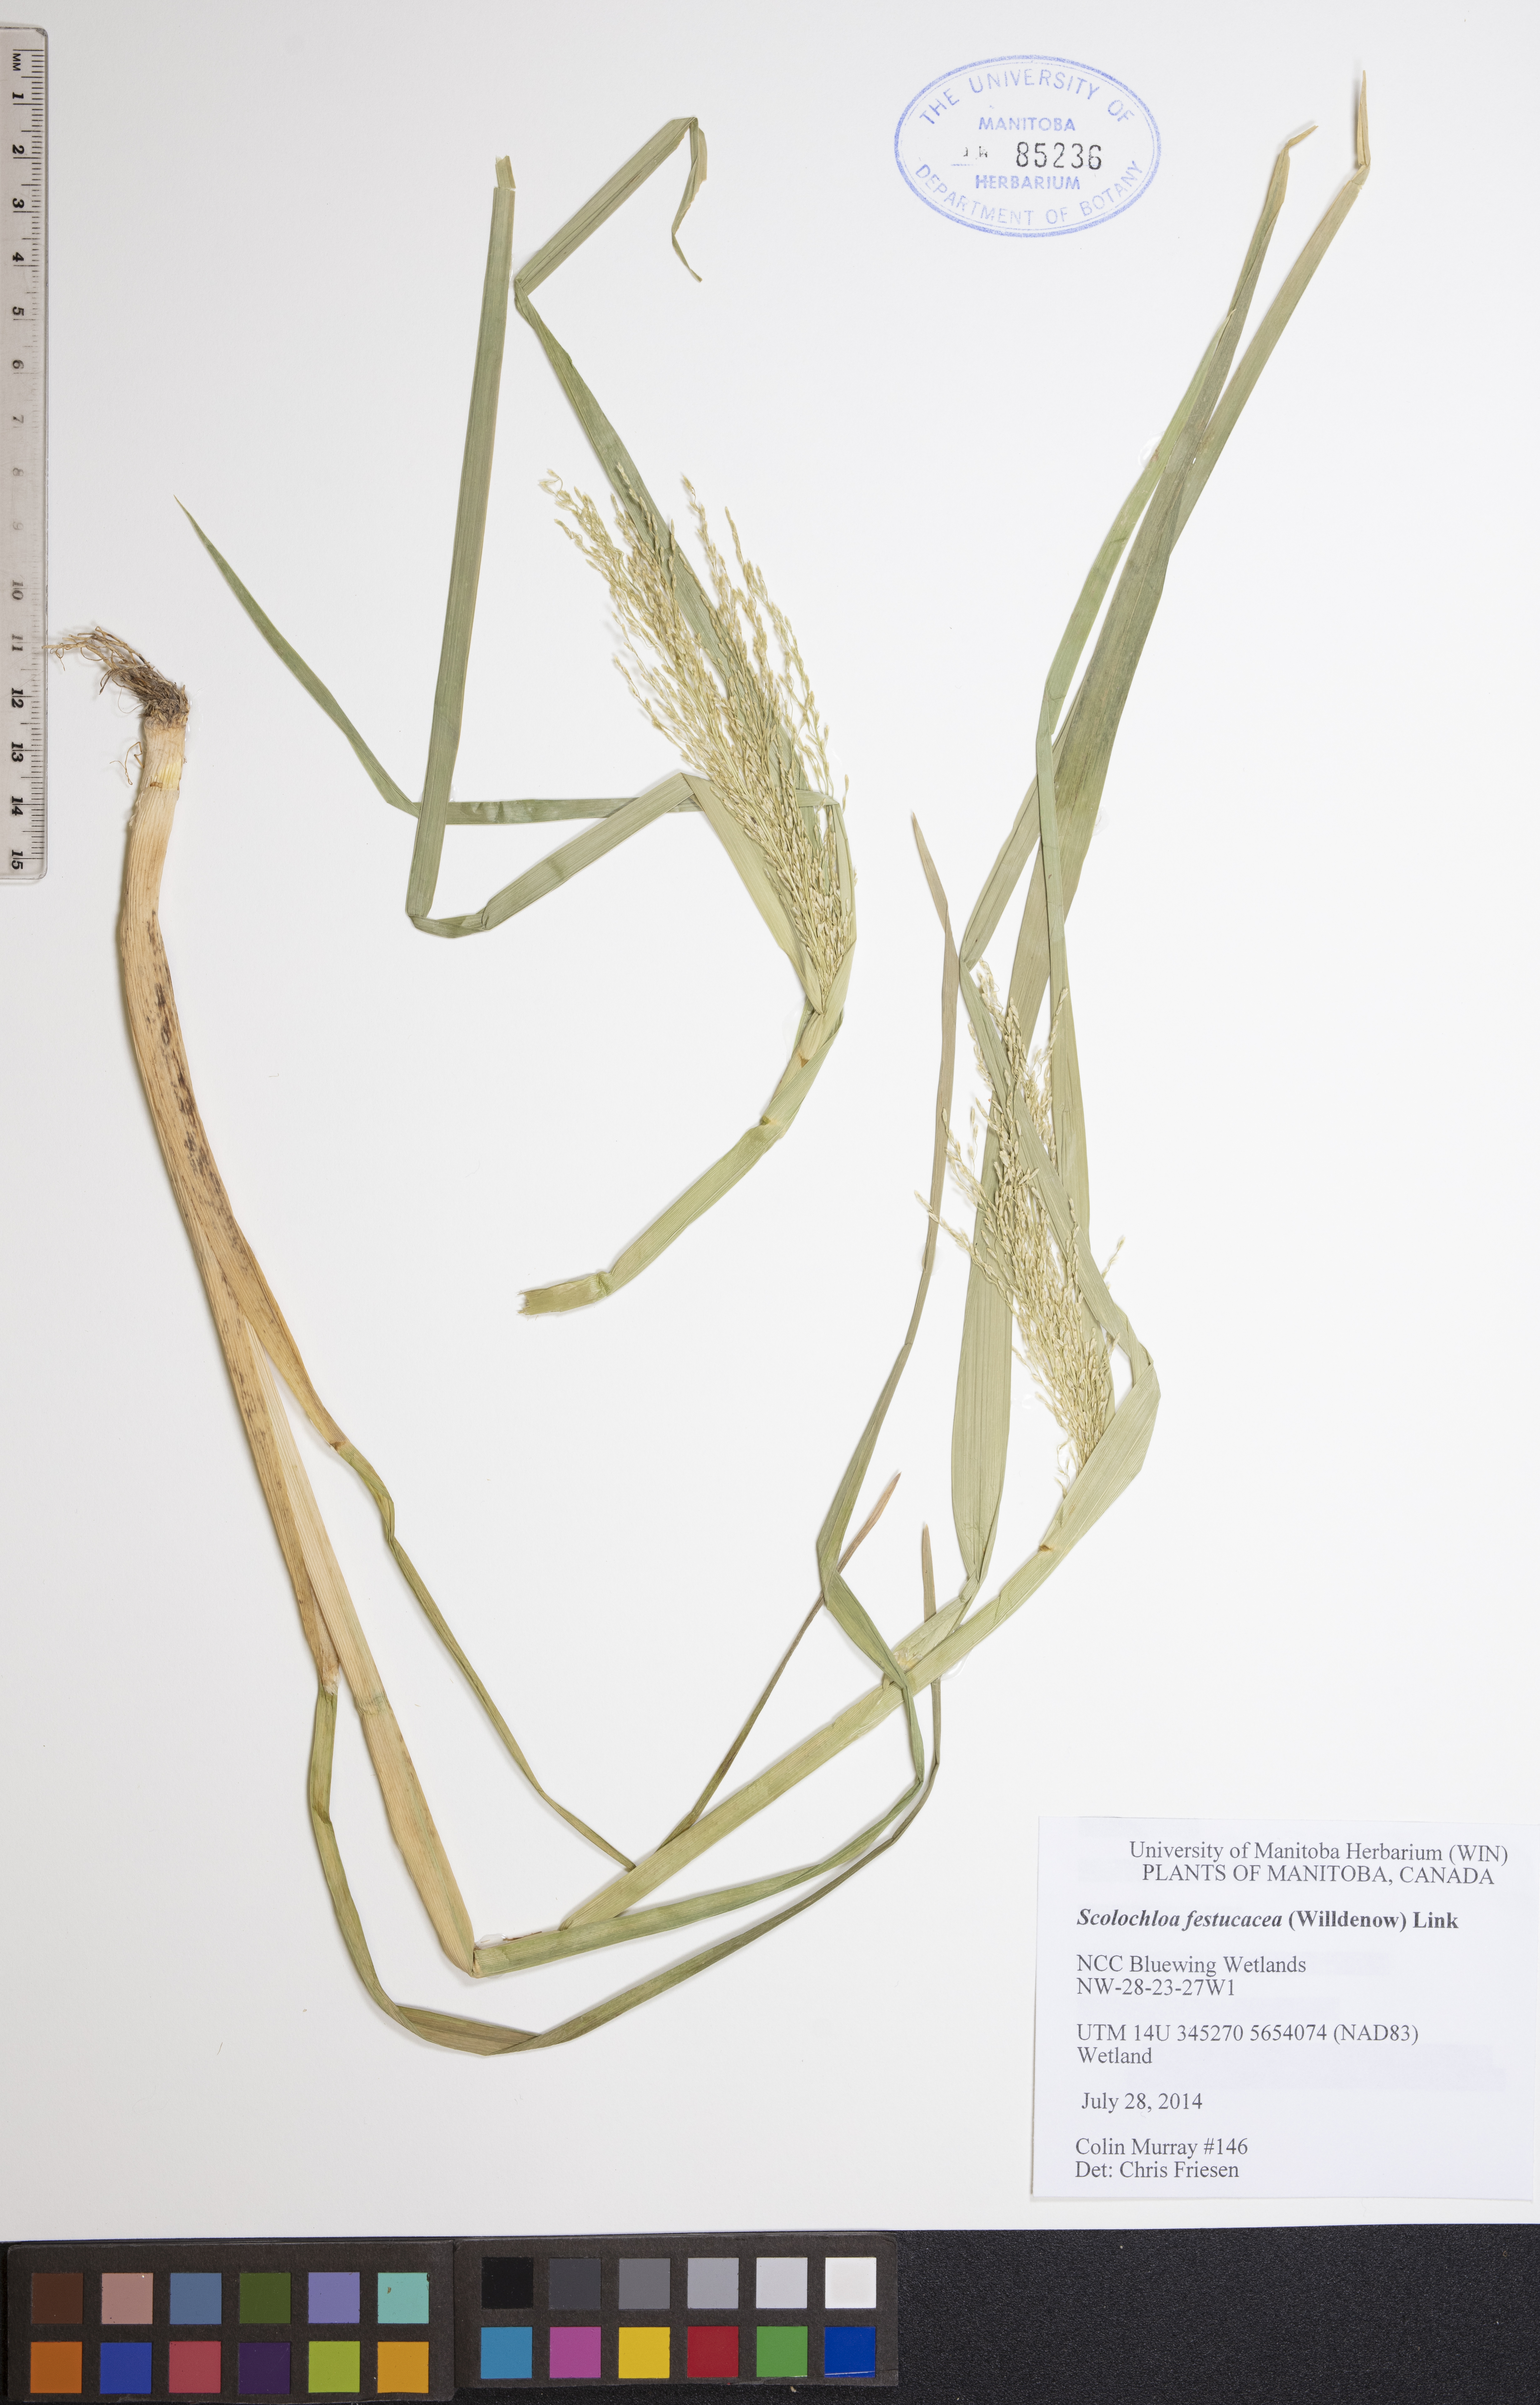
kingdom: Plantae
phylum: Tracheophyta
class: Liliopsida
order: Poales
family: Poaceae
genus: Scolochloa
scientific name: Scolochloa festucacea
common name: Common rivergrass
